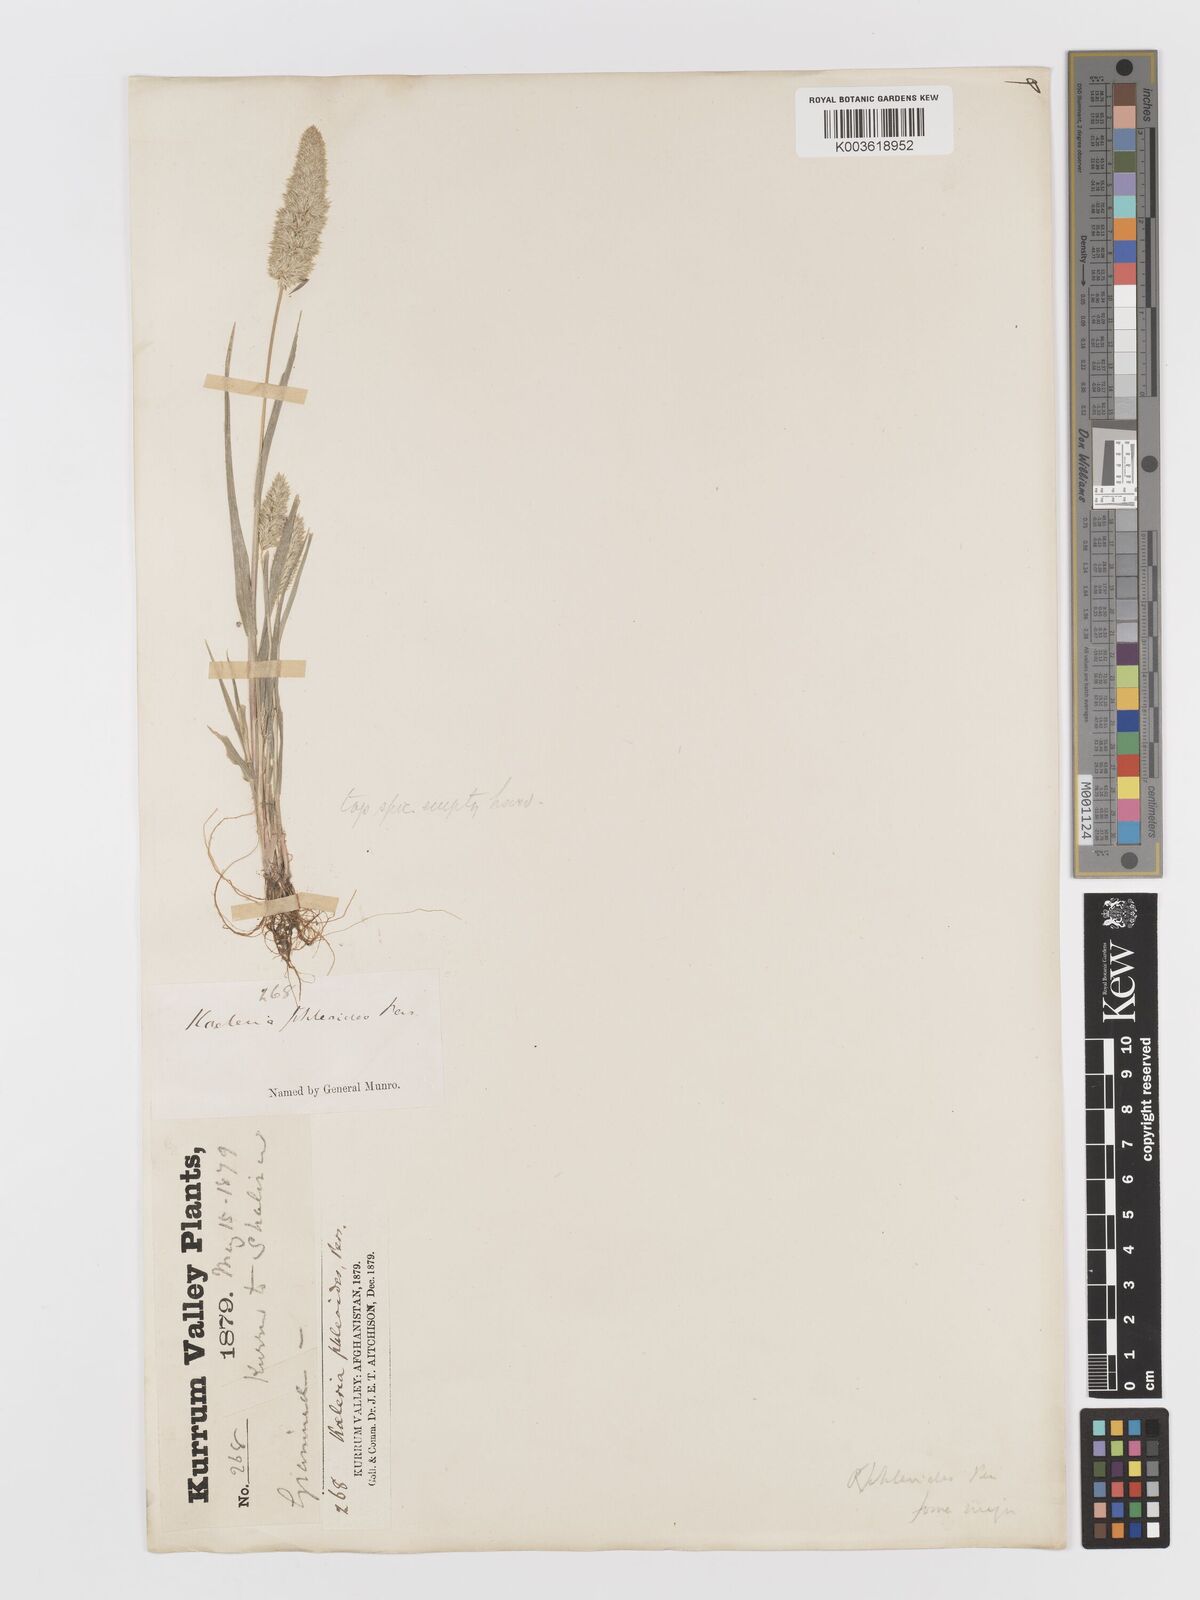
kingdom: Plantae
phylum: Tracheophyta
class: Liliopsida
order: Poales
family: Poaceae
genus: Rostraria
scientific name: Rostraria cristata
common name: Mediterranean hair-grass
